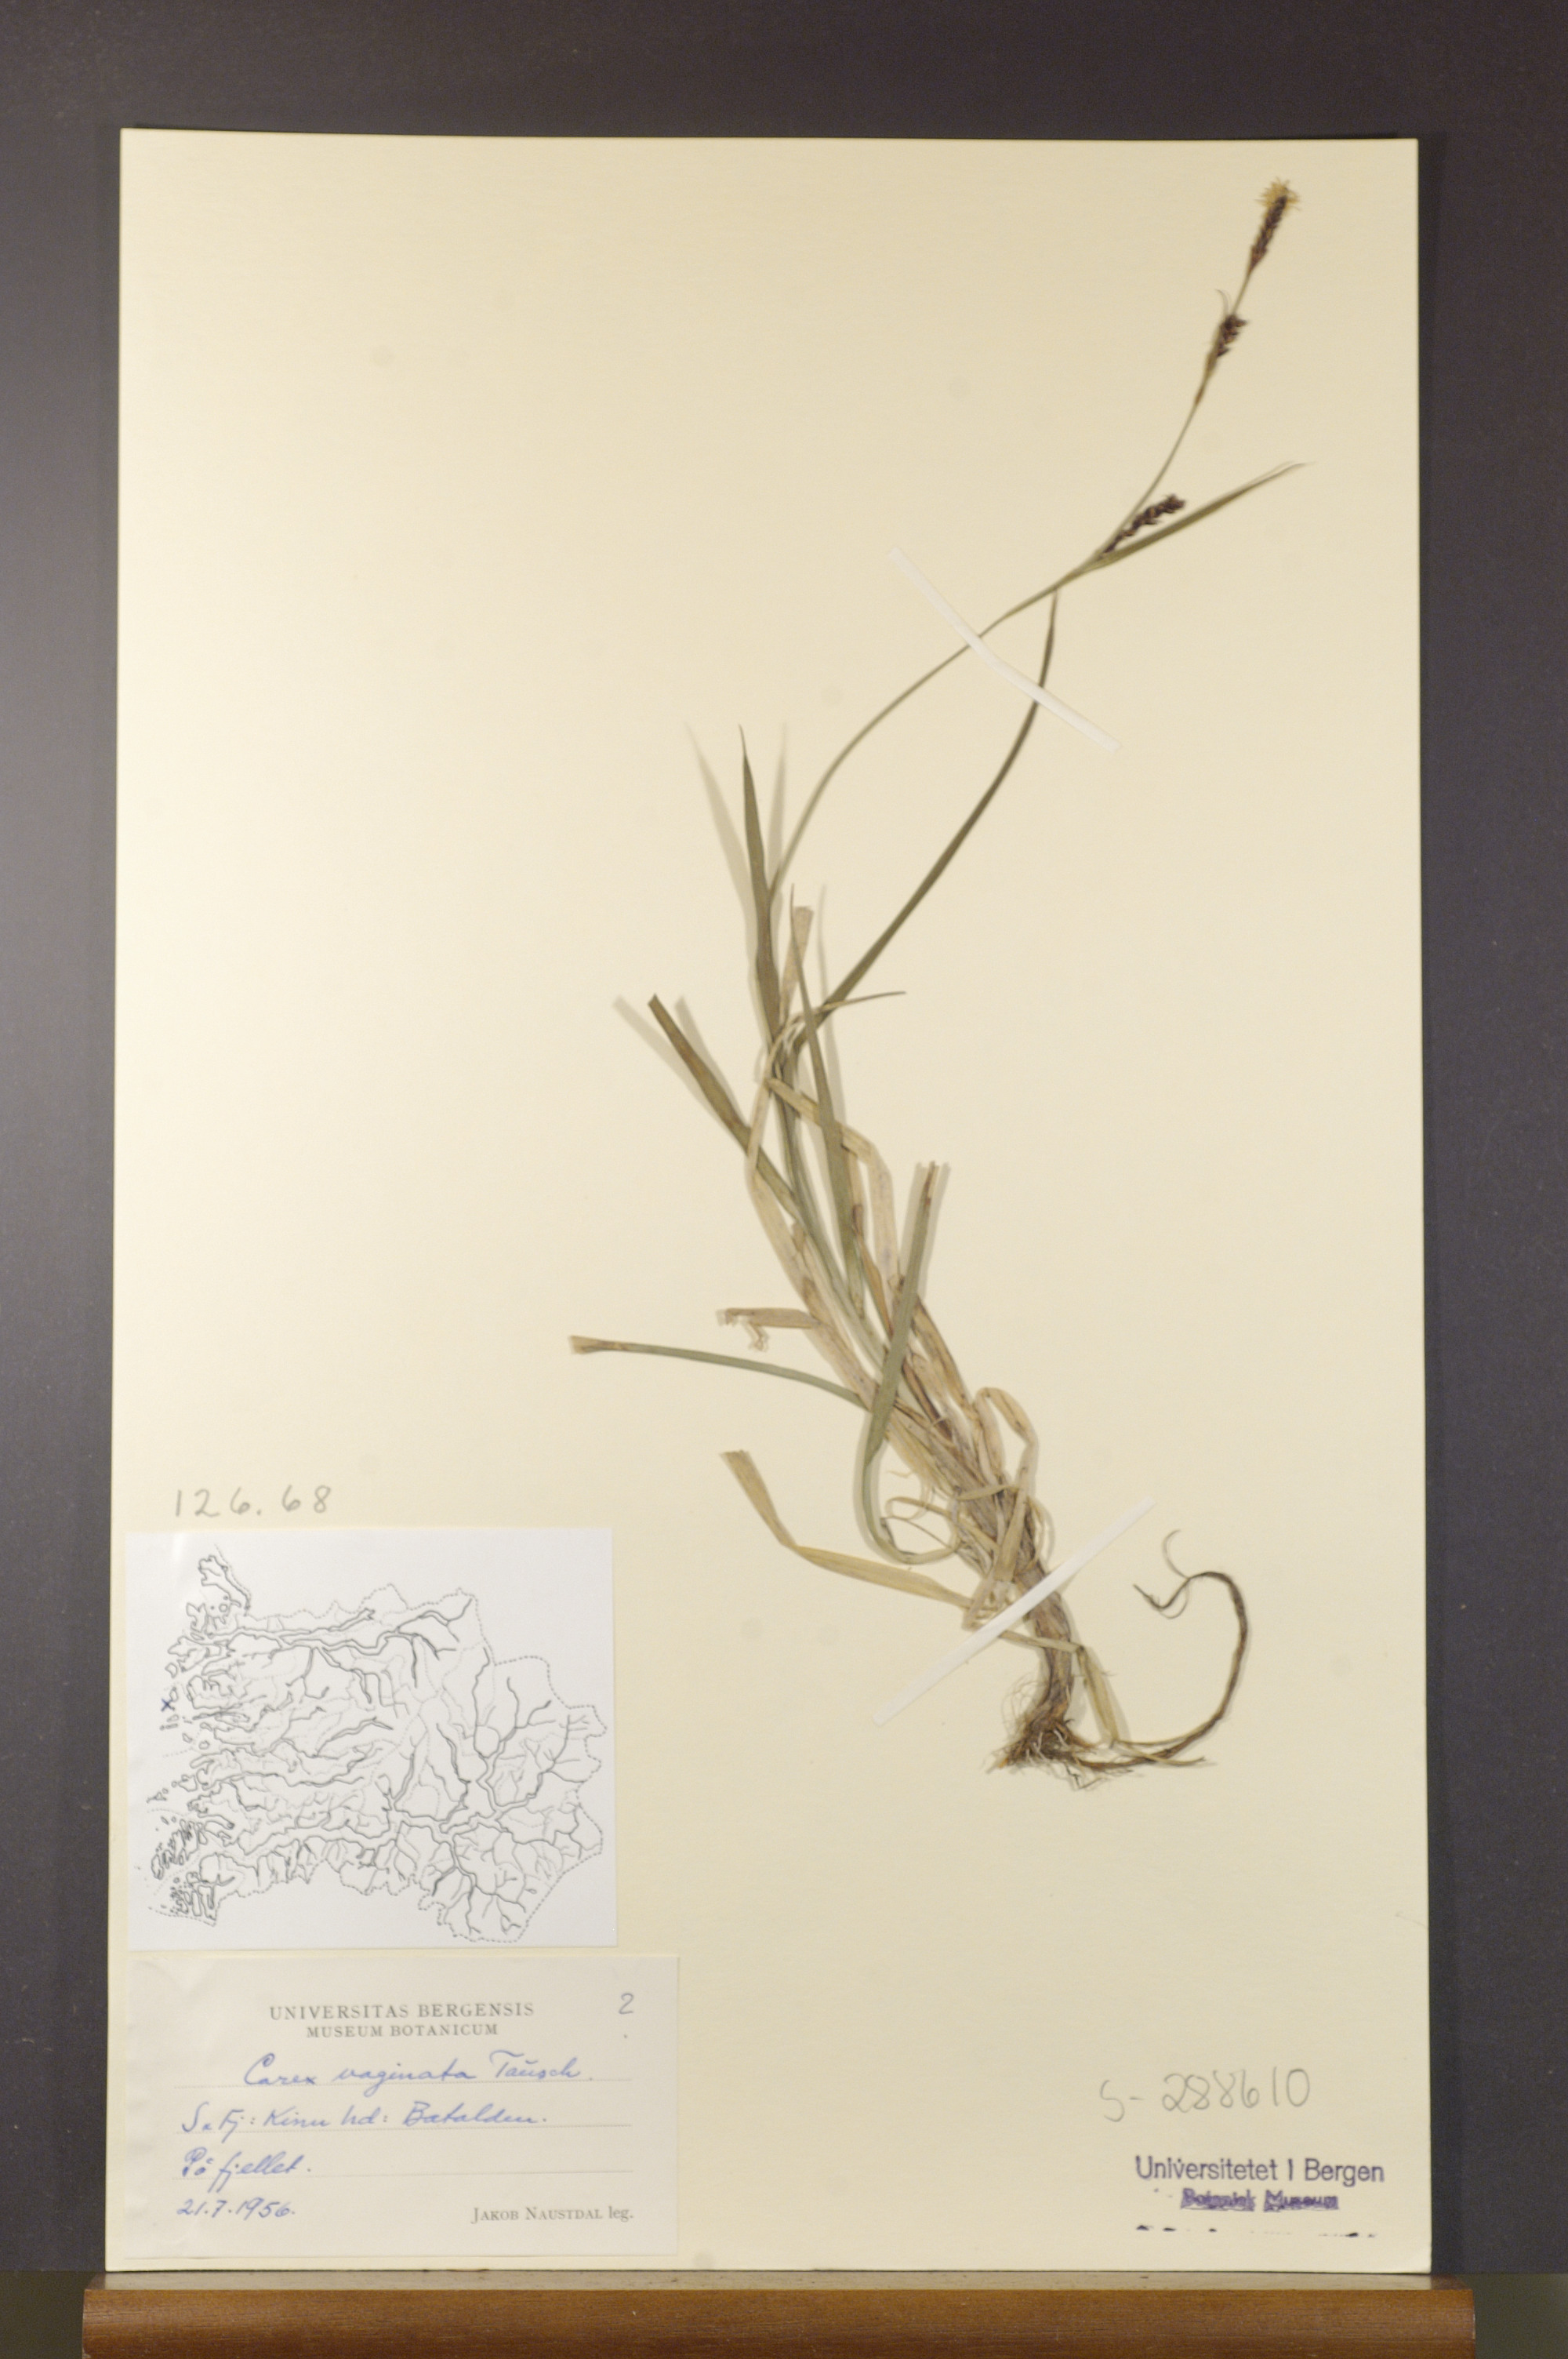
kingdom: Plantae
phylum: Tracheophyta
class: Liliopsida
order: Poales
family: Cyperaceae
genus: Carex
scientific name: Carex vaginata
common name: Sheathed sedge
